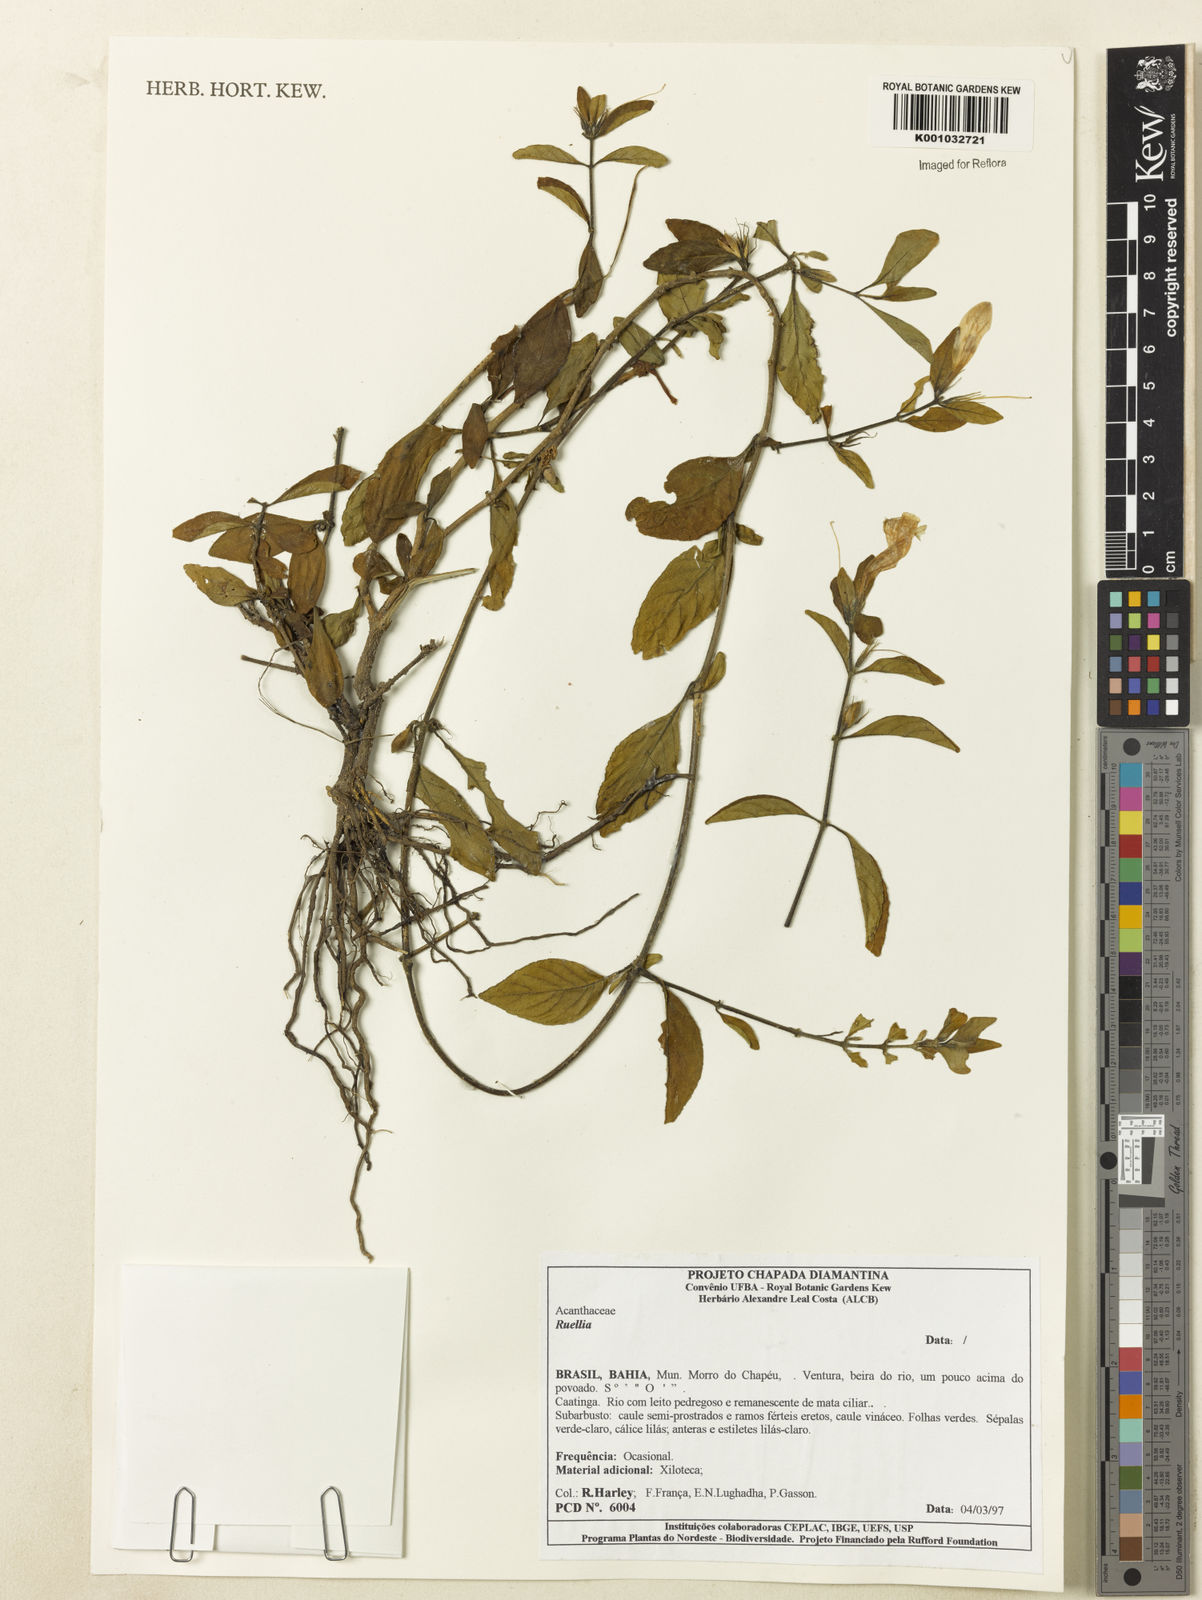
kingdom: Plantae
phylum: Tracheophyta
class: Magnoliopsida
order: Lamiales
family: Acanthaceae
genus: Ruellia
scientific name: Ruellia
